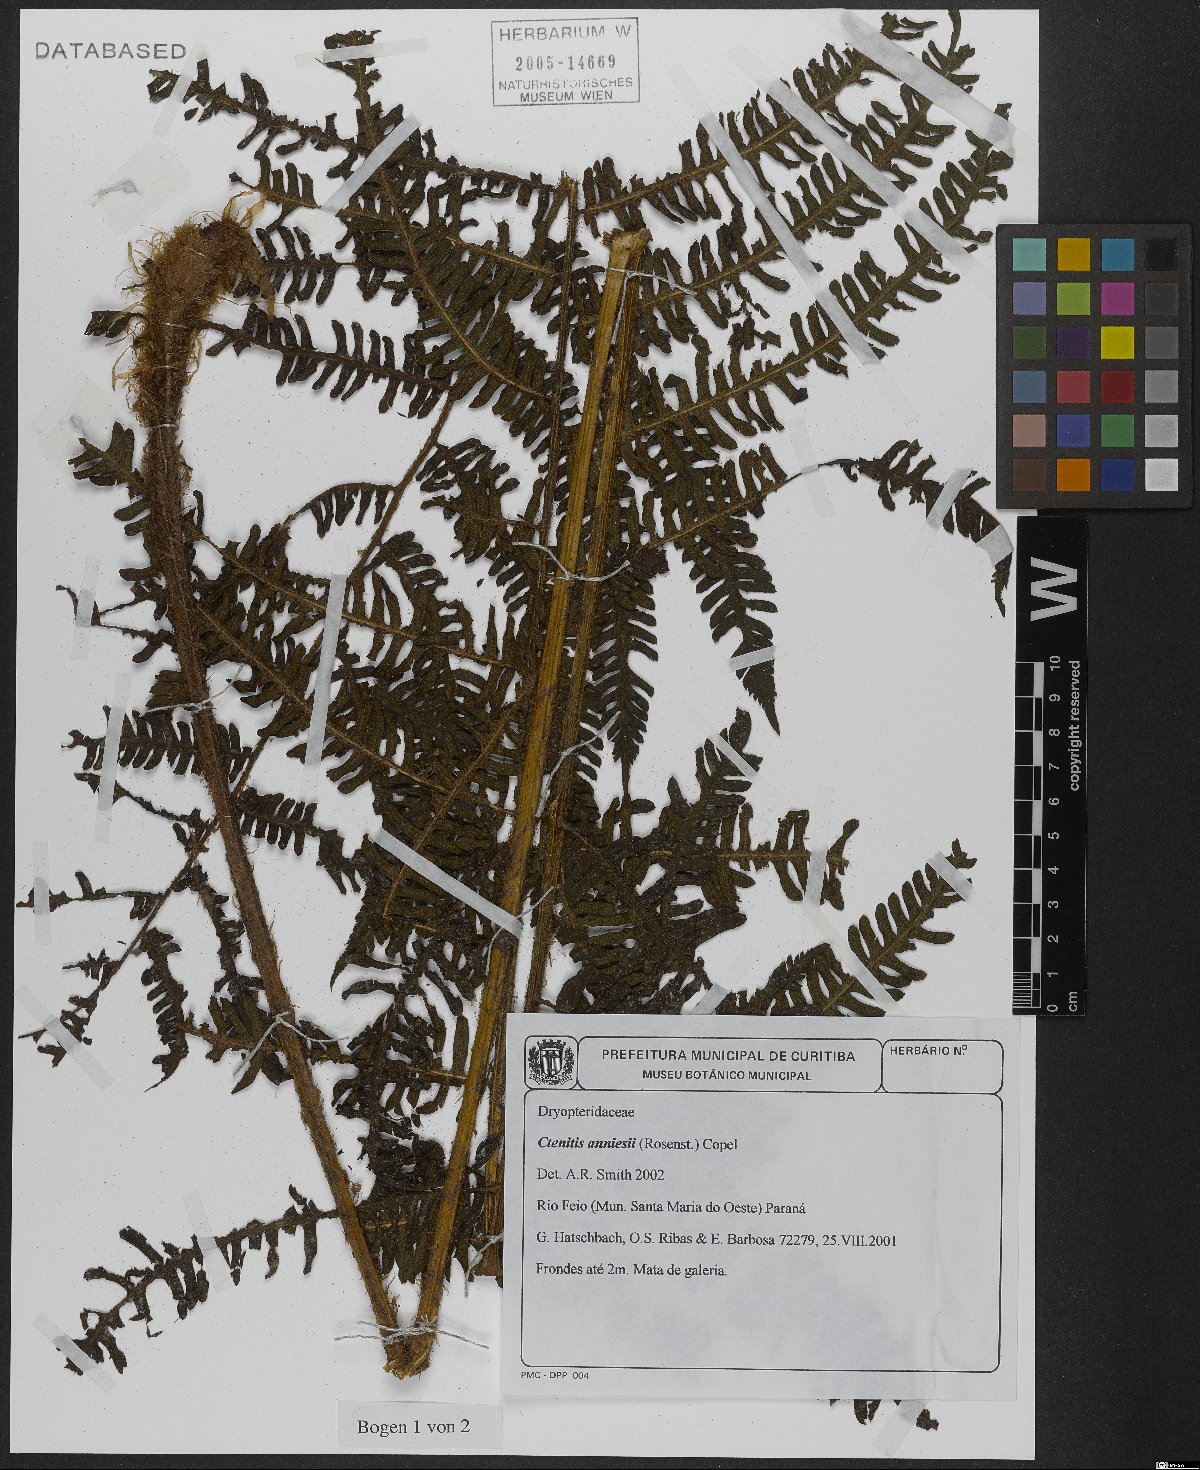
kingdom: Plantae
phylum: Tracheophyta
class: Polypodiopsida
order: Polypodiales
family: Dryopteridaceae
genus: Ctenitis
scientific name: Ctenitis anniesii
